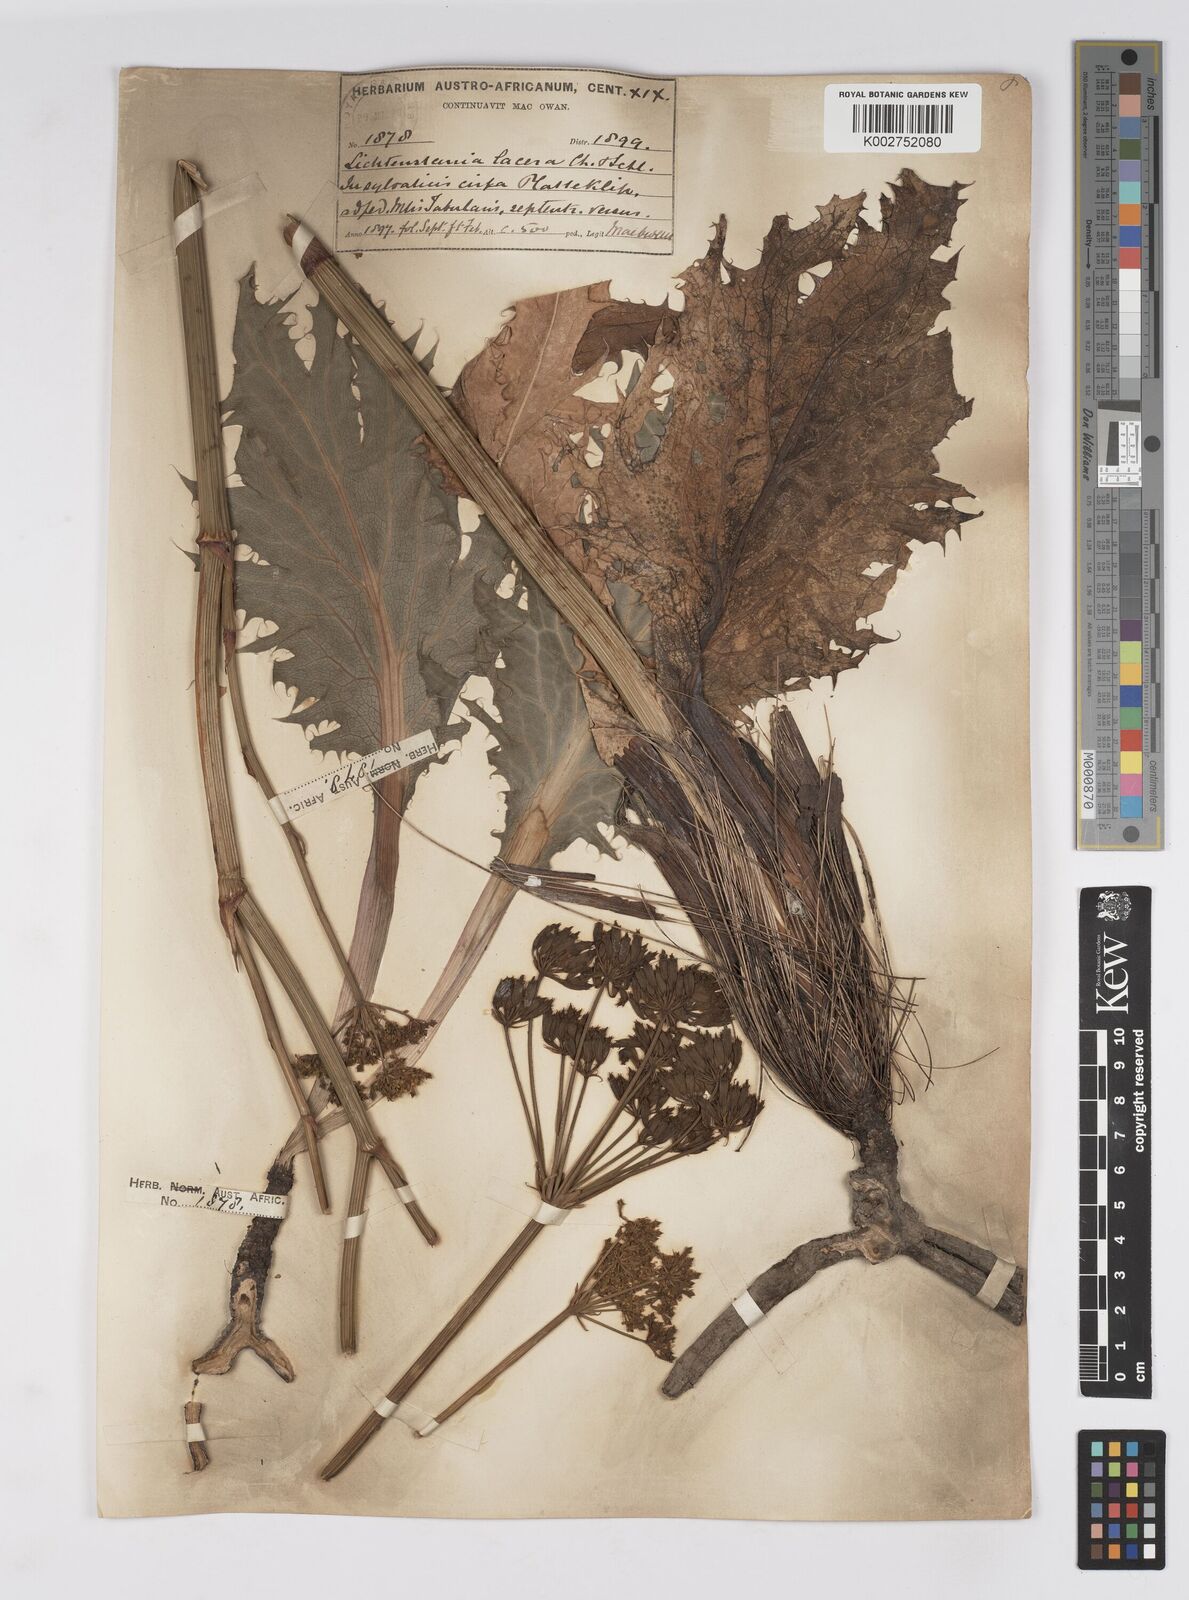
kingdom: Plantae
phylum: Tracheophyta
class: Magnoliopsida
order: Apiales
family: Apiaceae
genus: Lichtensteinia
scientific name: Lichtensteinia lacera
